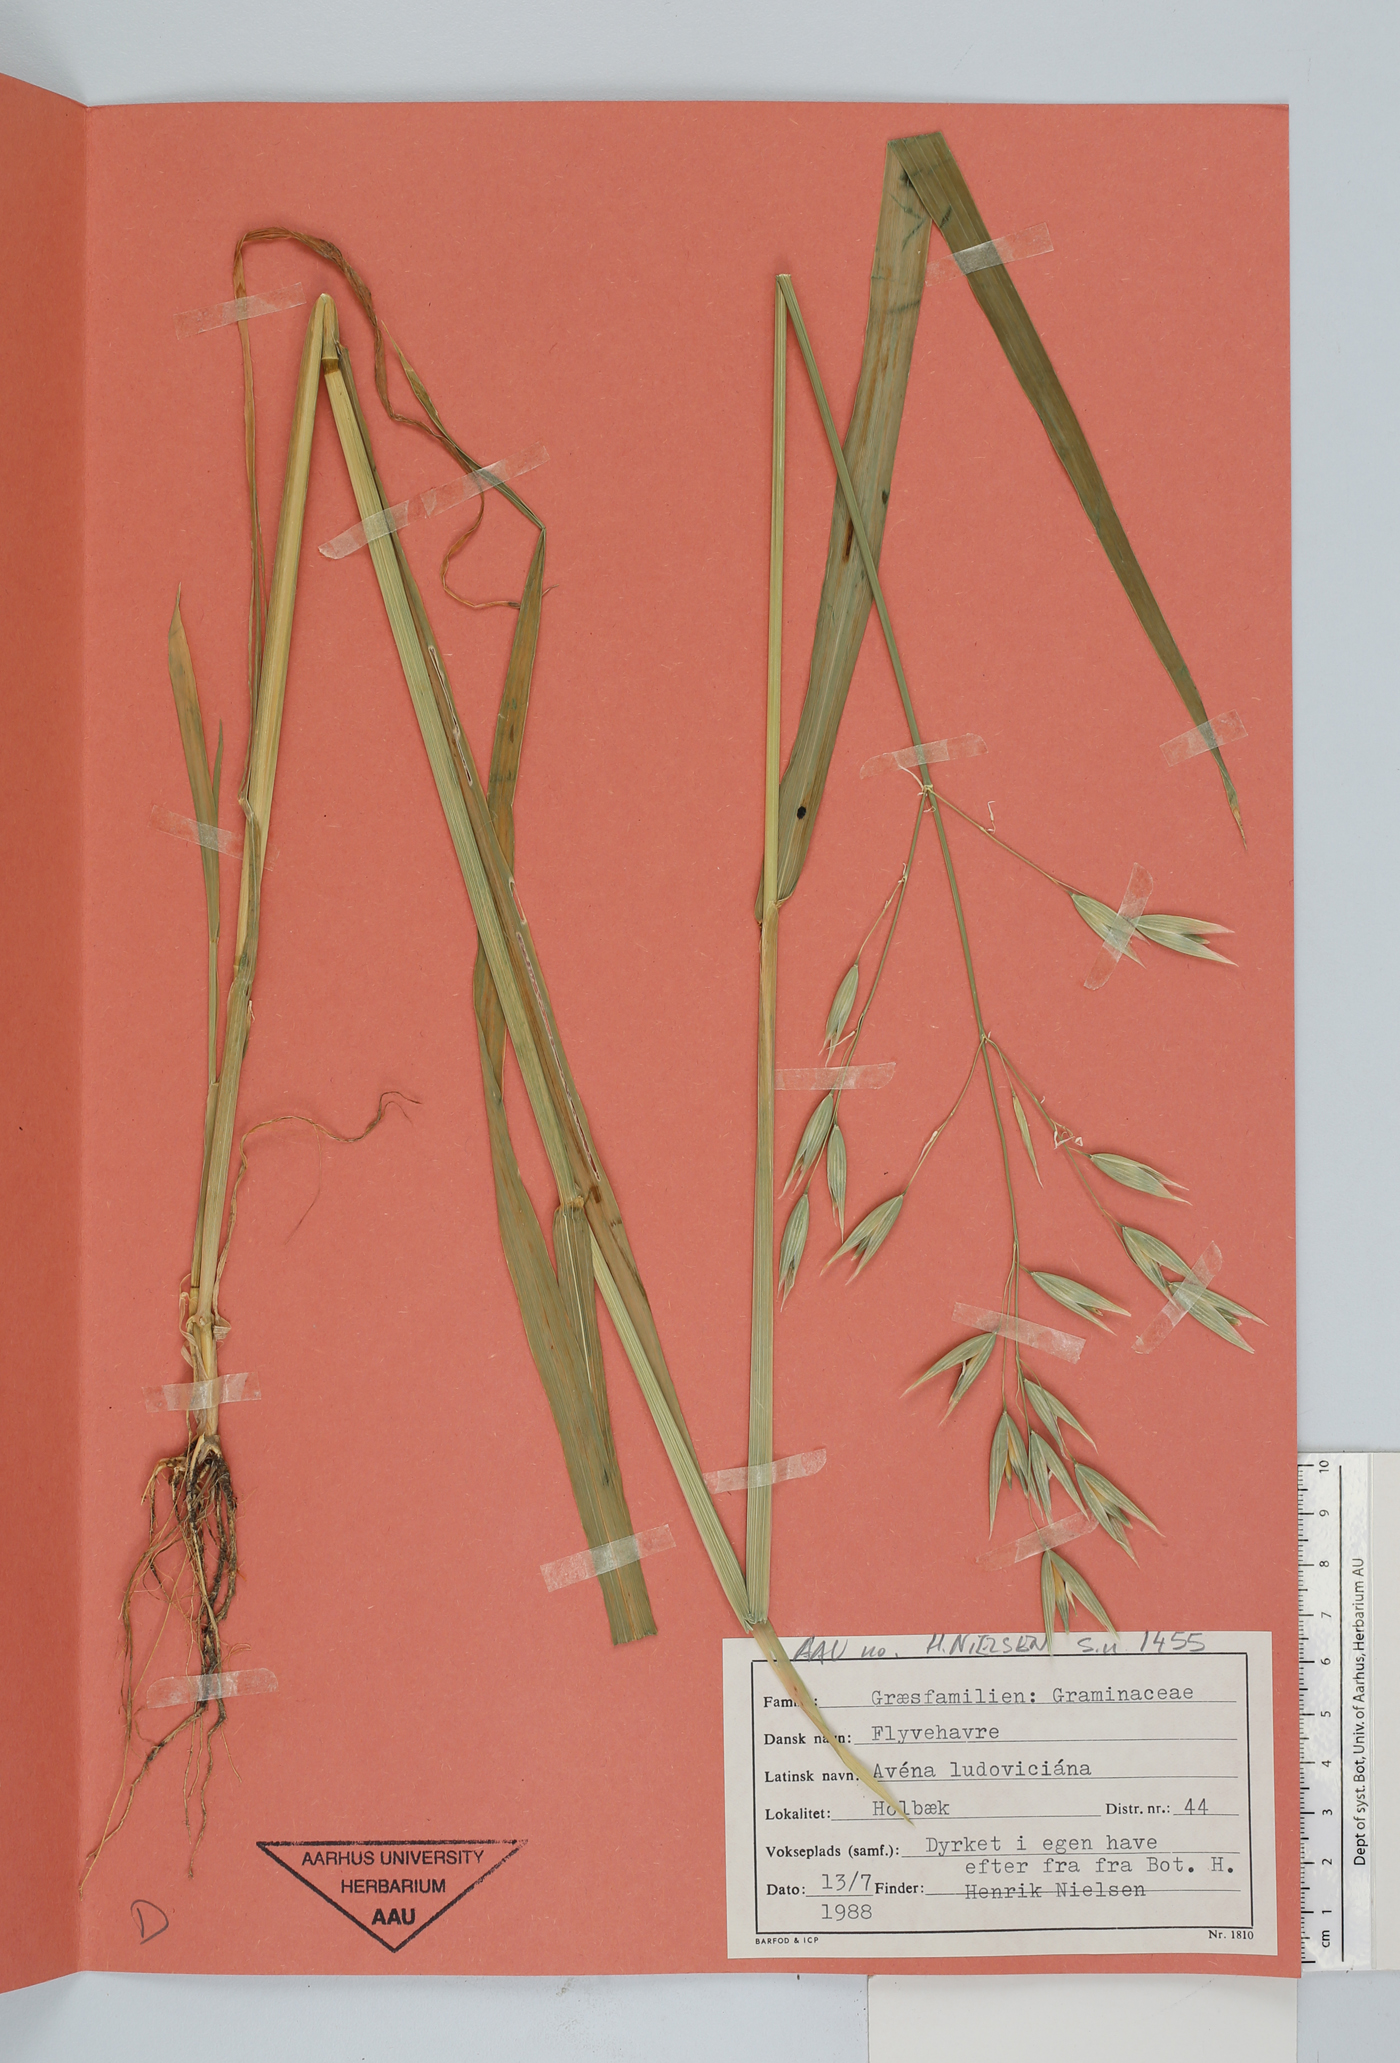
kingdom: Plantae
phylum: Tracheophyta
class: Liliopsida
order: Poales
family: Poaceae
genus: Avena
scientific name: Avena fatua
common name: Wild oat
